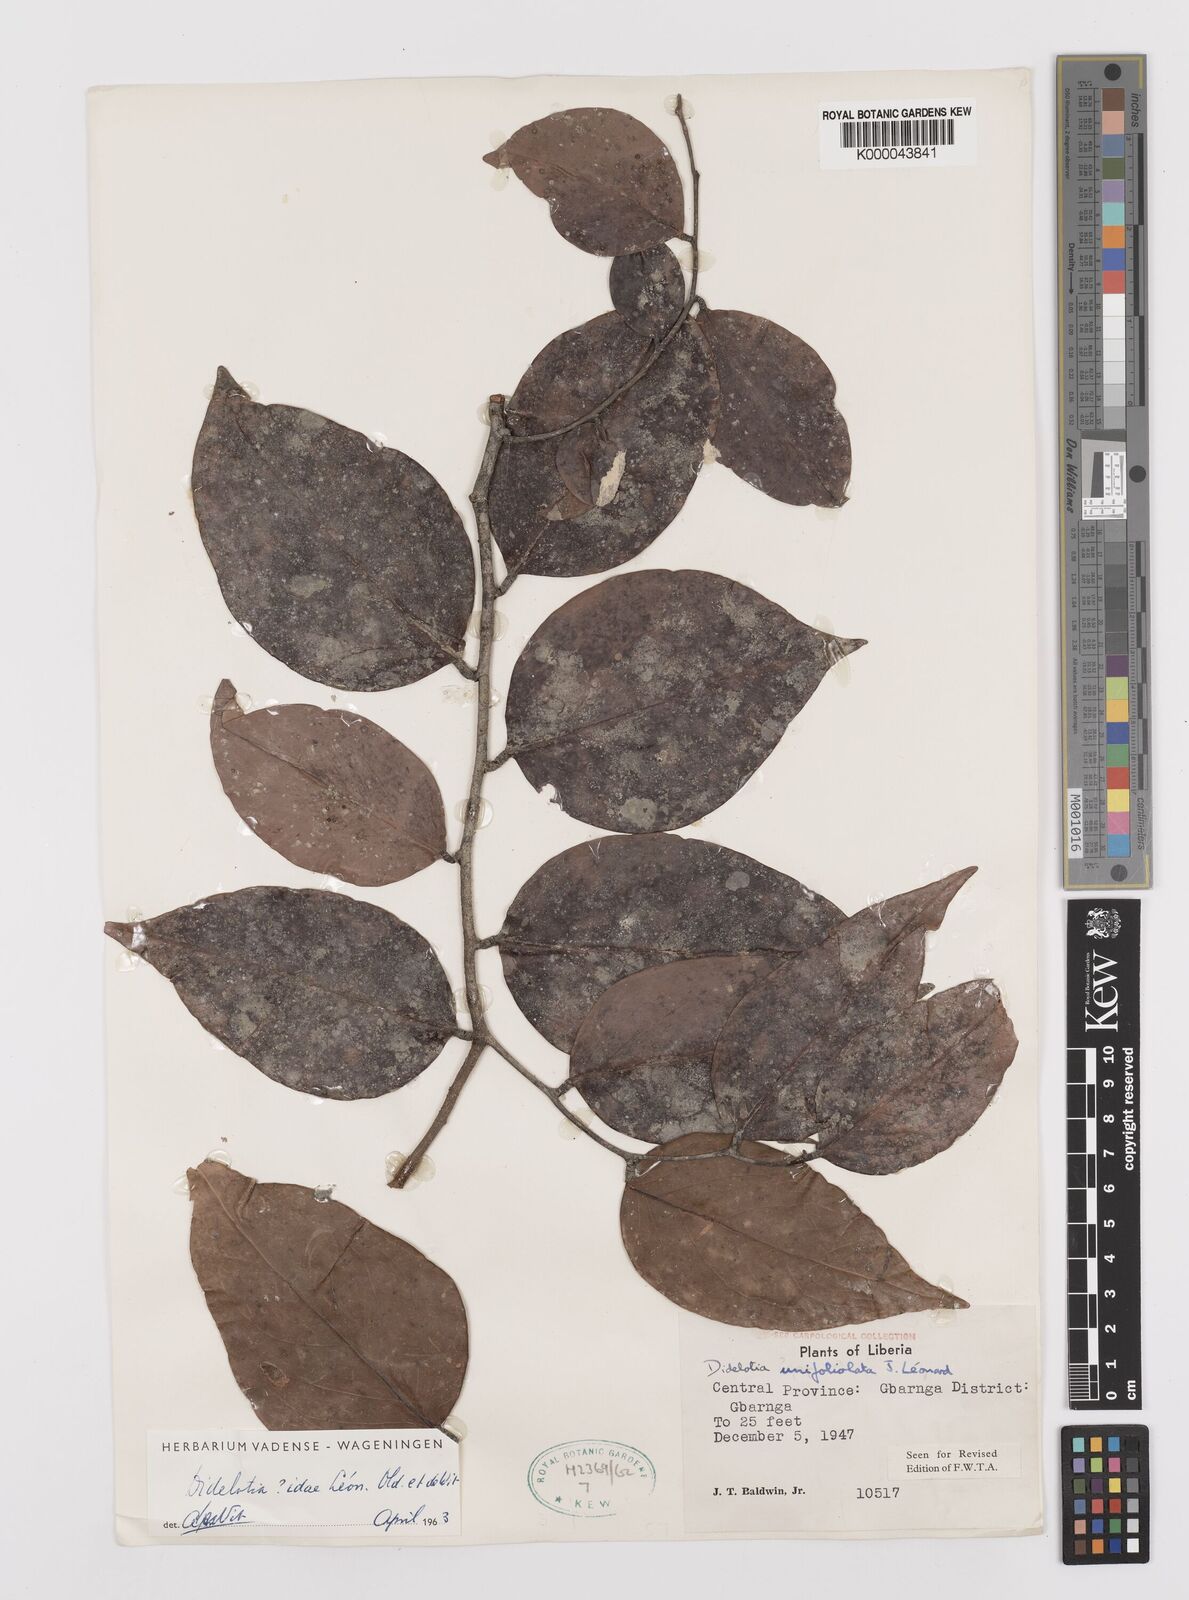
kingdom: Plantae
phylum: Tracheophyta
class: Magnoliopsida
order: Fabales
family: Fabaceae
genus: Didelotia
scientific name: Didelotia
